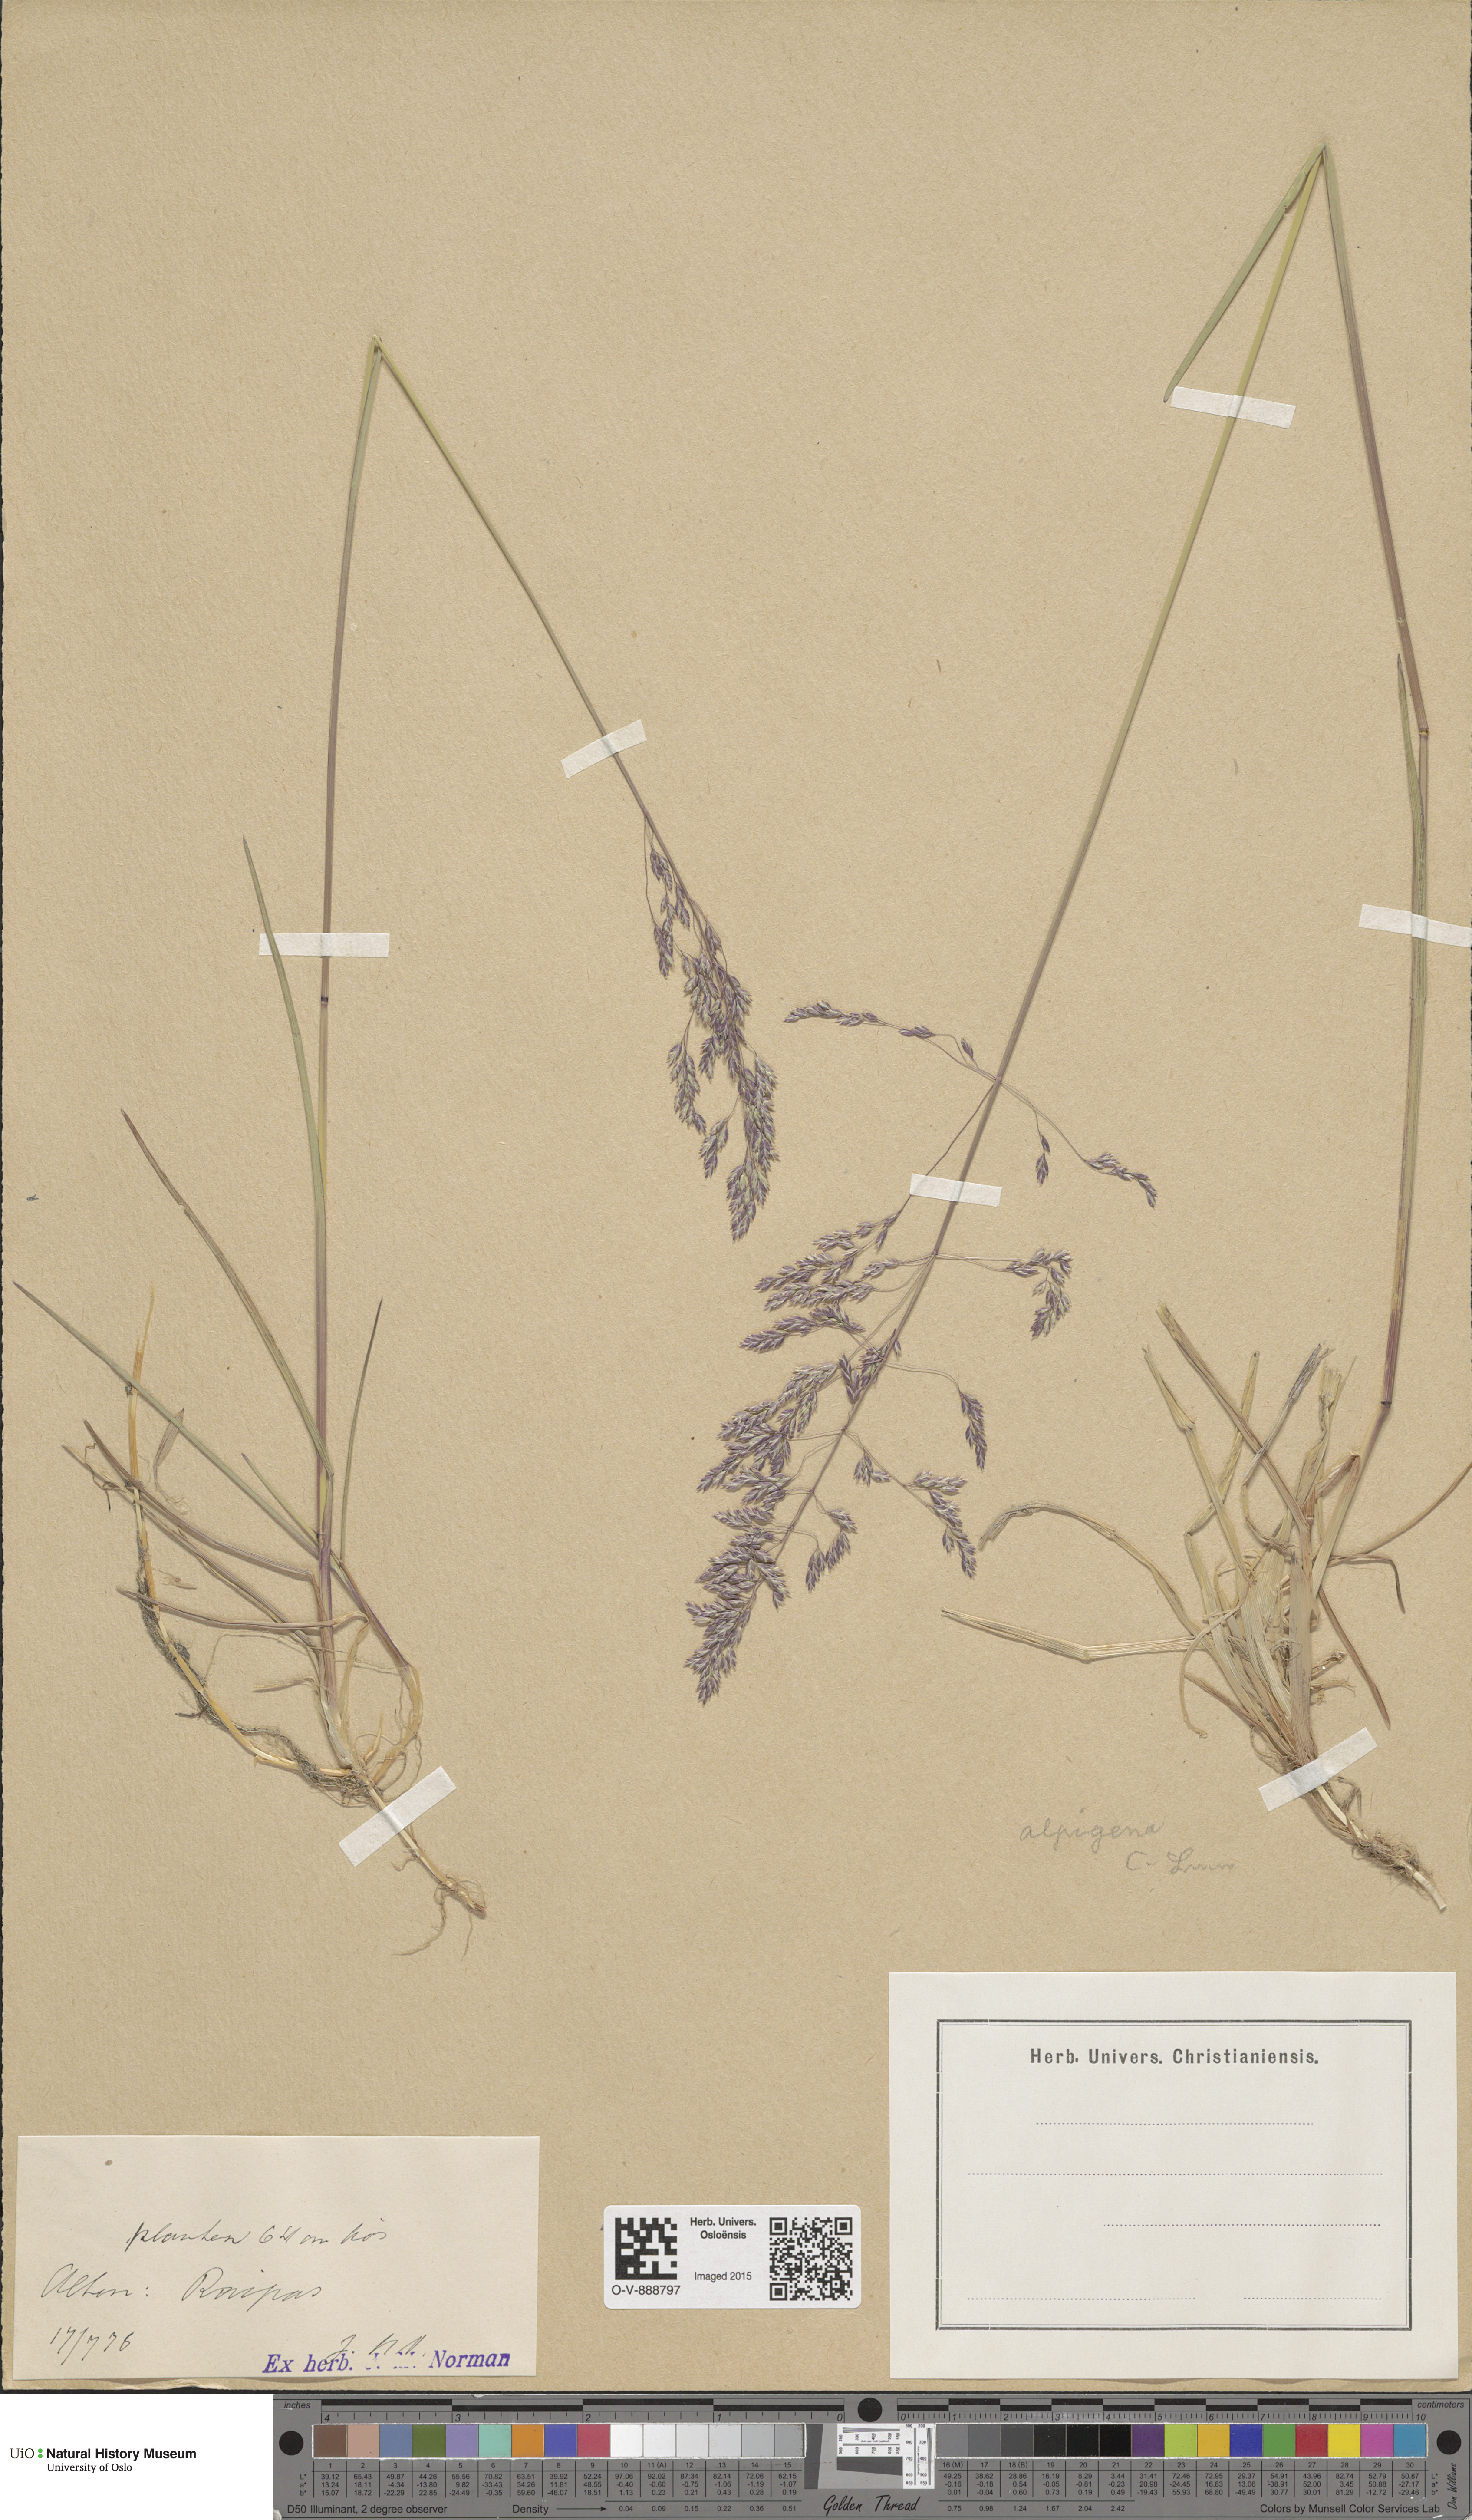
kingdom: Plantae
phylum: Tracheophyta
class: Liliopsida
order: Poales
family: Poaceae
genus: Poa
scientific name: Poa alpigena
